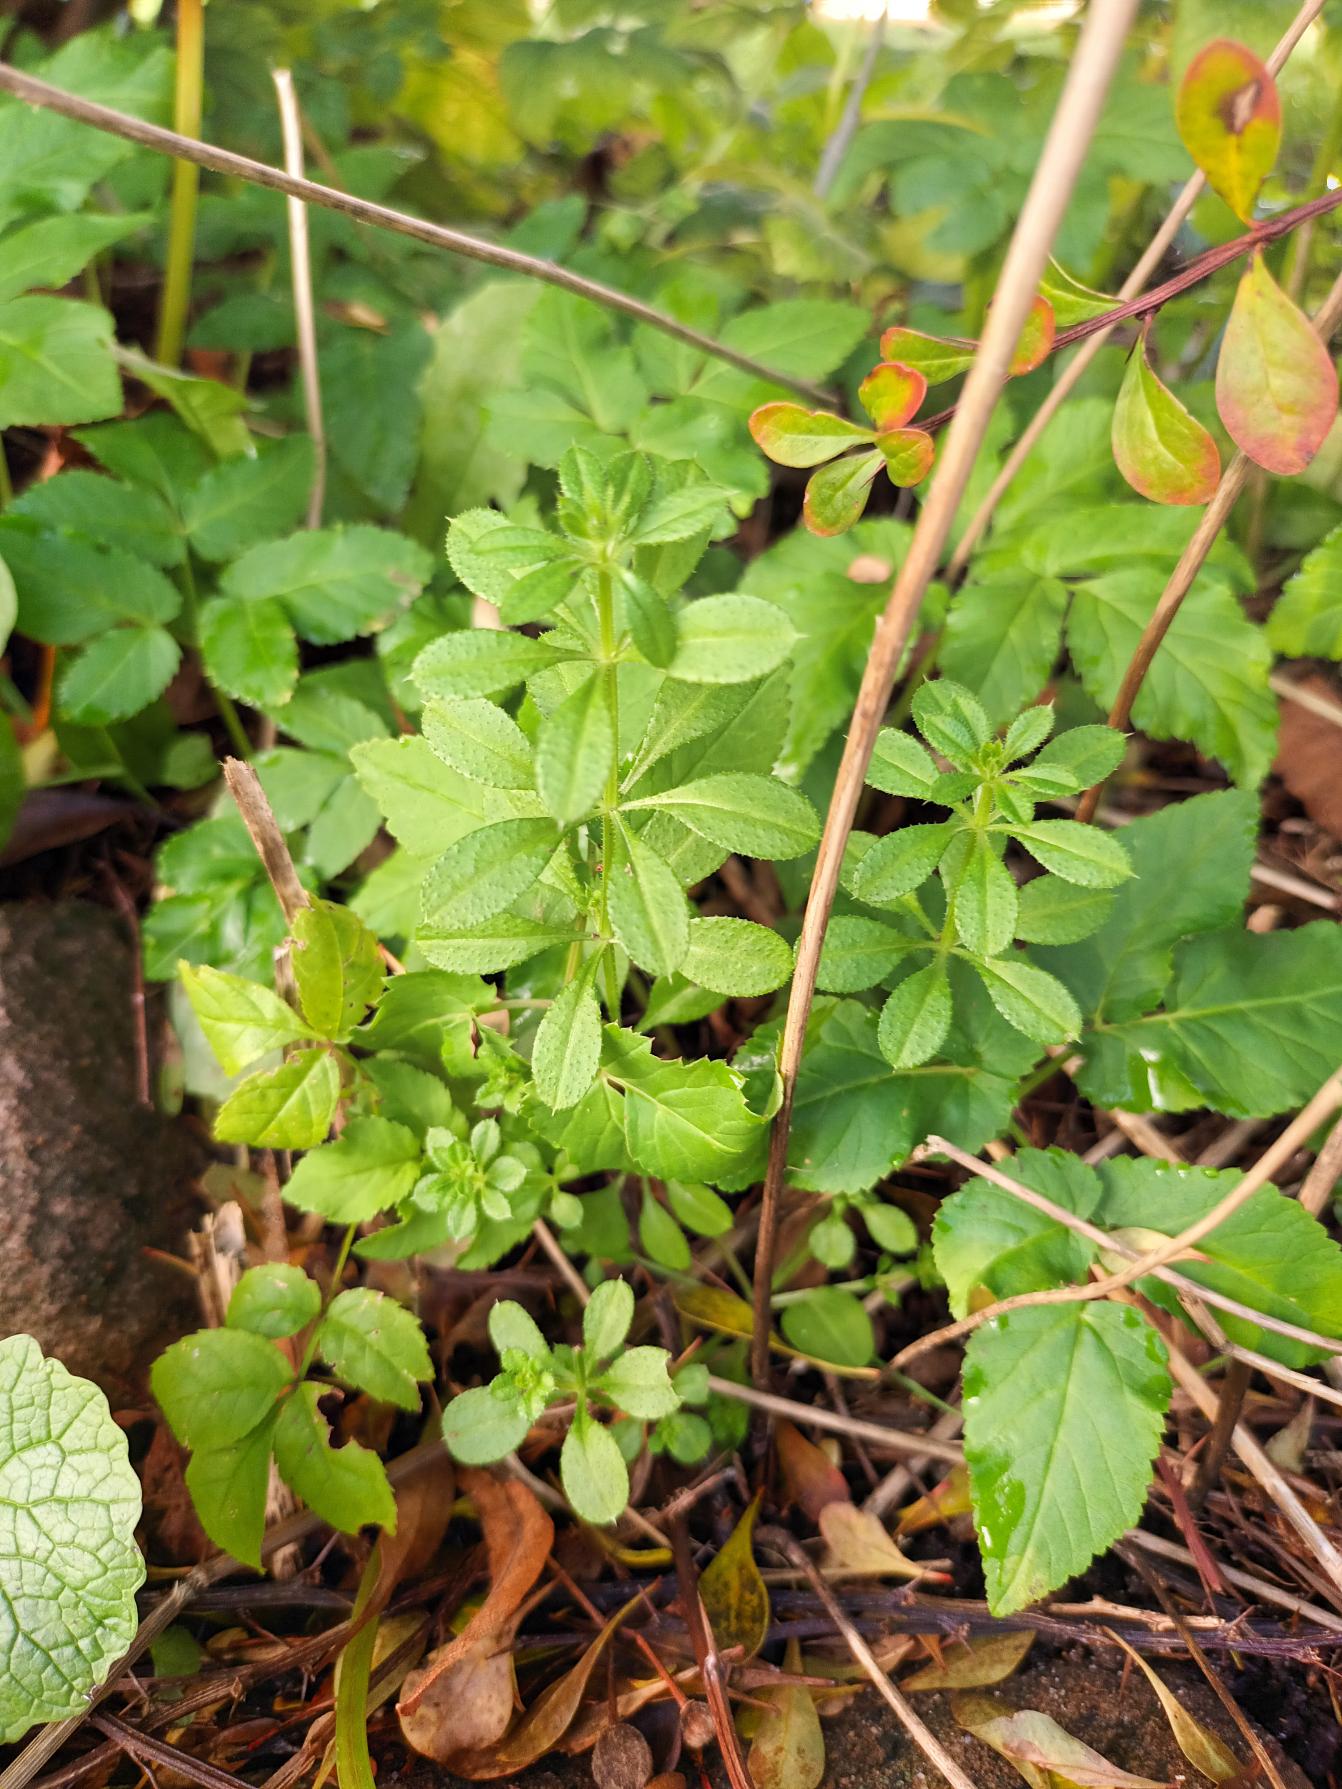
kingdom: Plantae
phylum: Tracheophyta
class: Magnoliopsida
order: Gentianales
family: Rubiaceae
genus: Galium
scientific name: Galium aparine
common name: Burre-snerre
